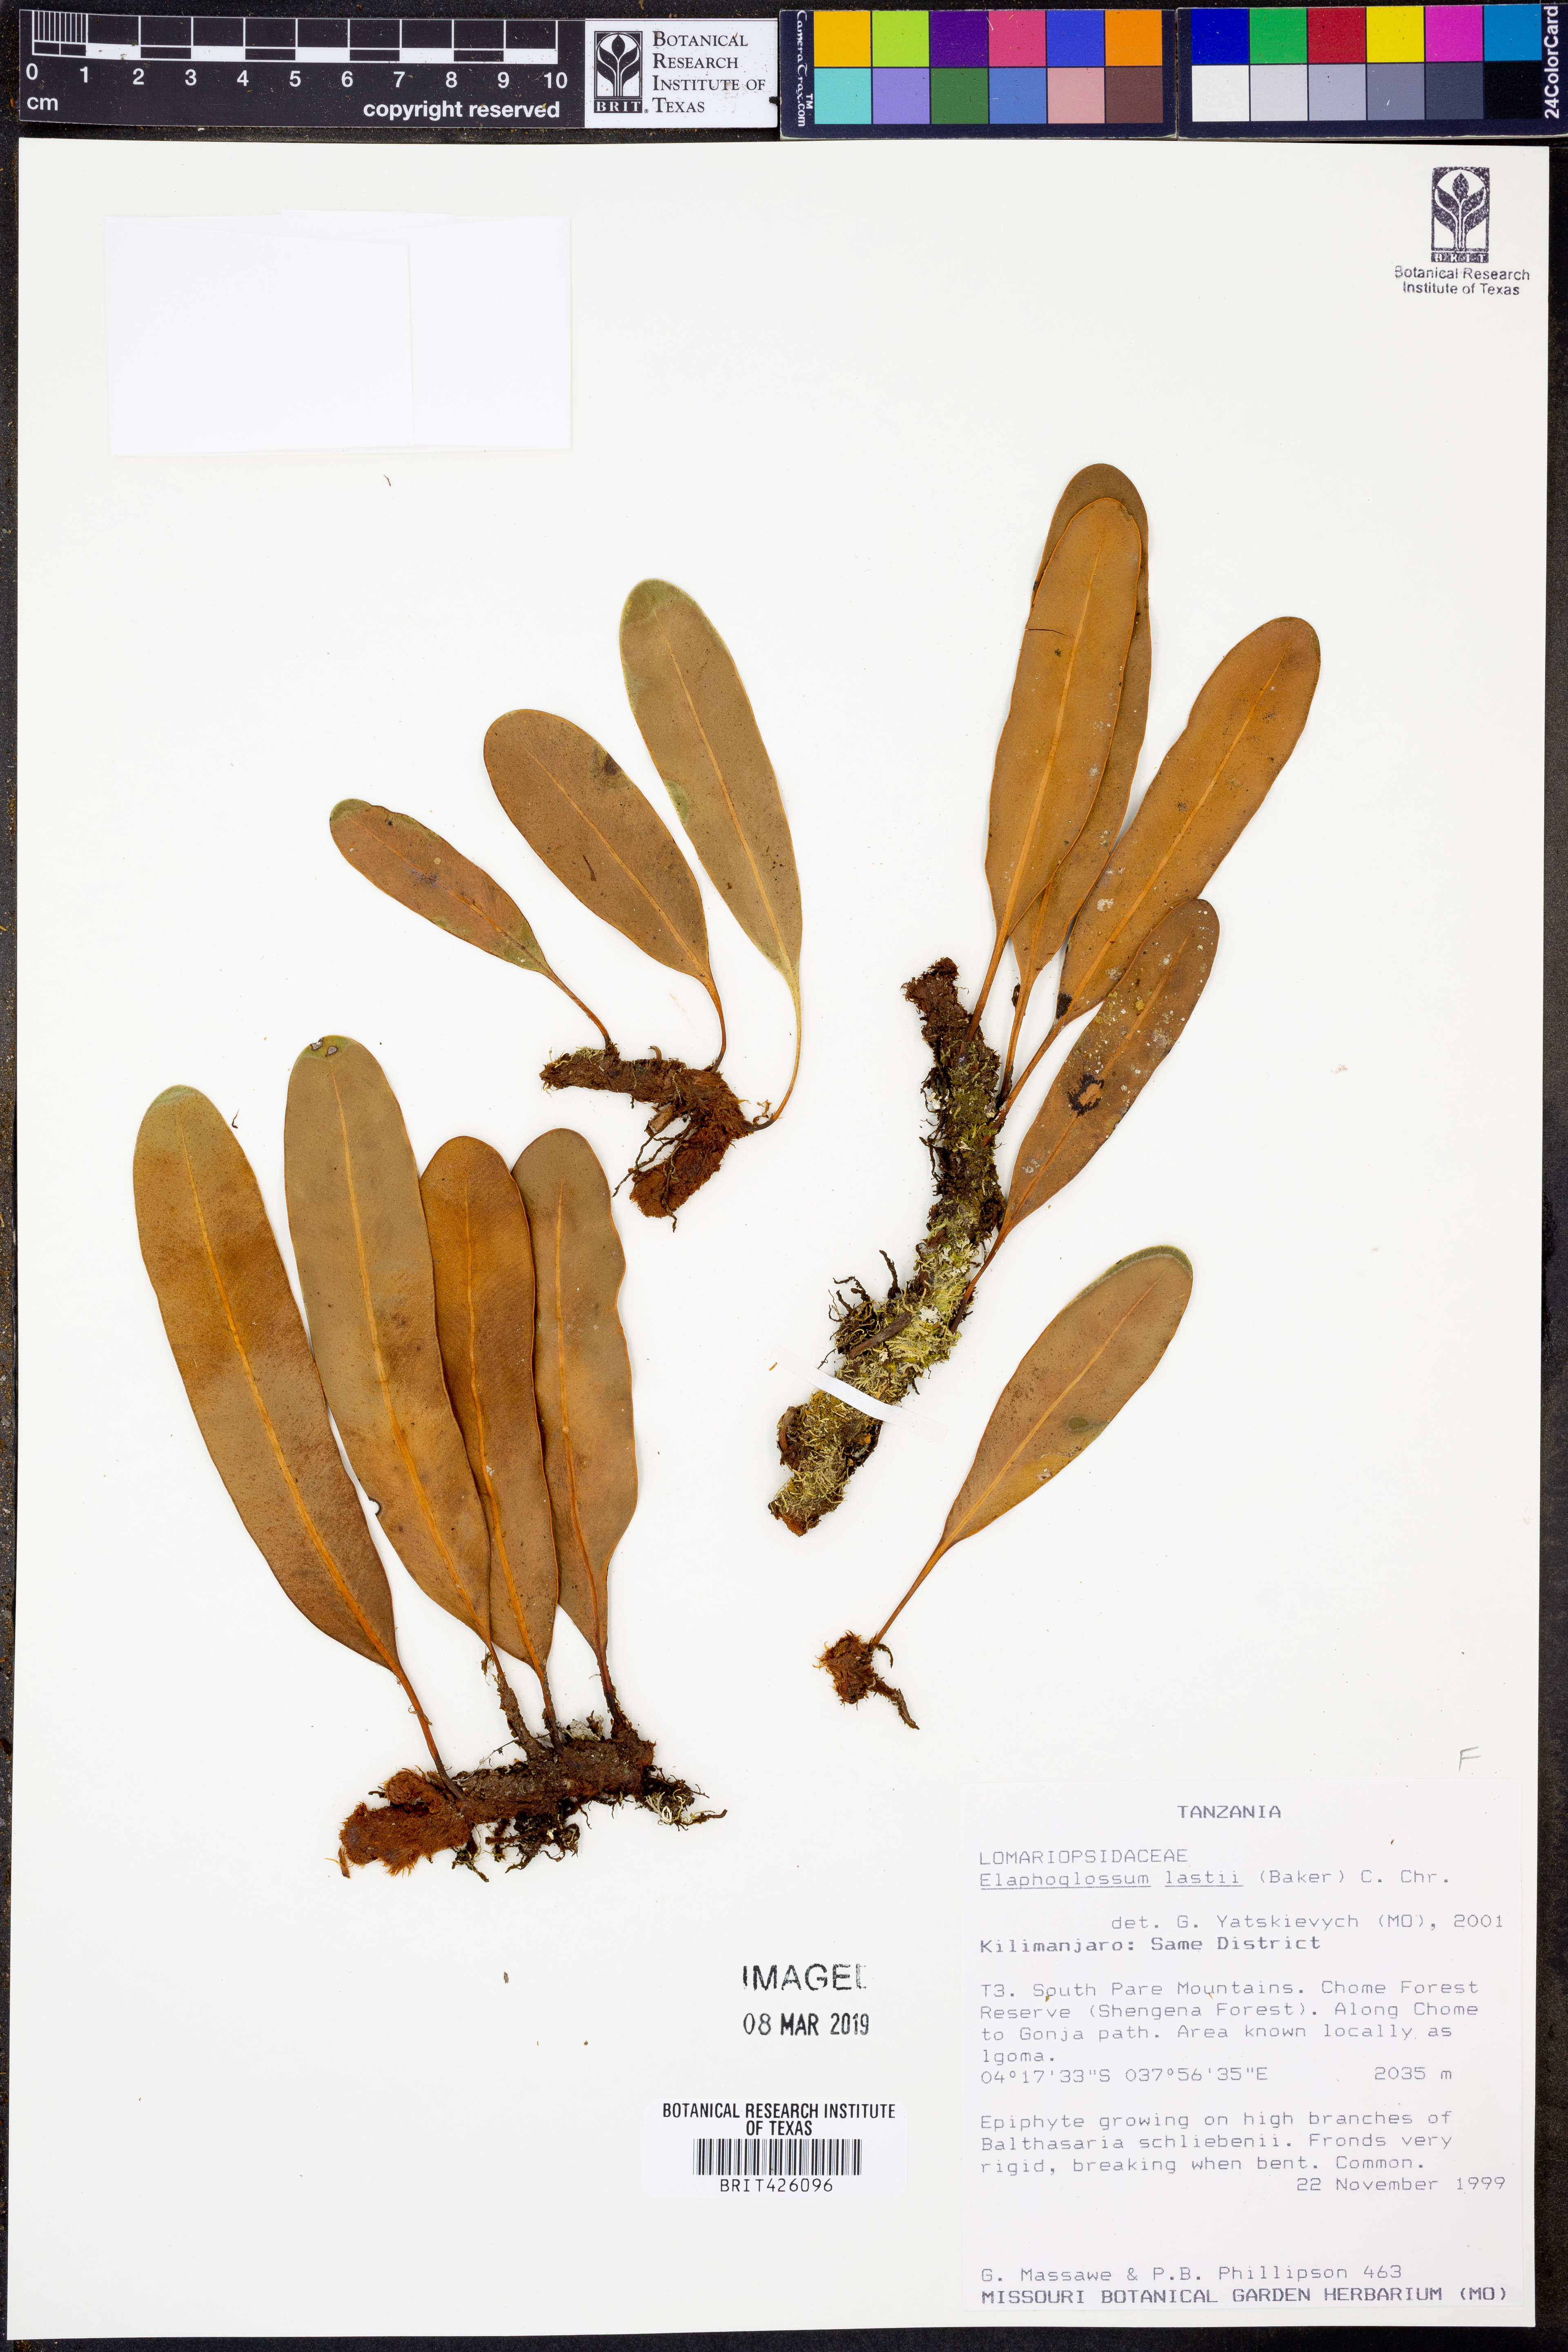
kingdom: Plantae
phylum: Tracheophyta
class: Polypodiopsida
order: Polypodiales
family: Dryopteridaceae
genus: Elaphoglossum
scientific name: Elaphoglossum lastii
